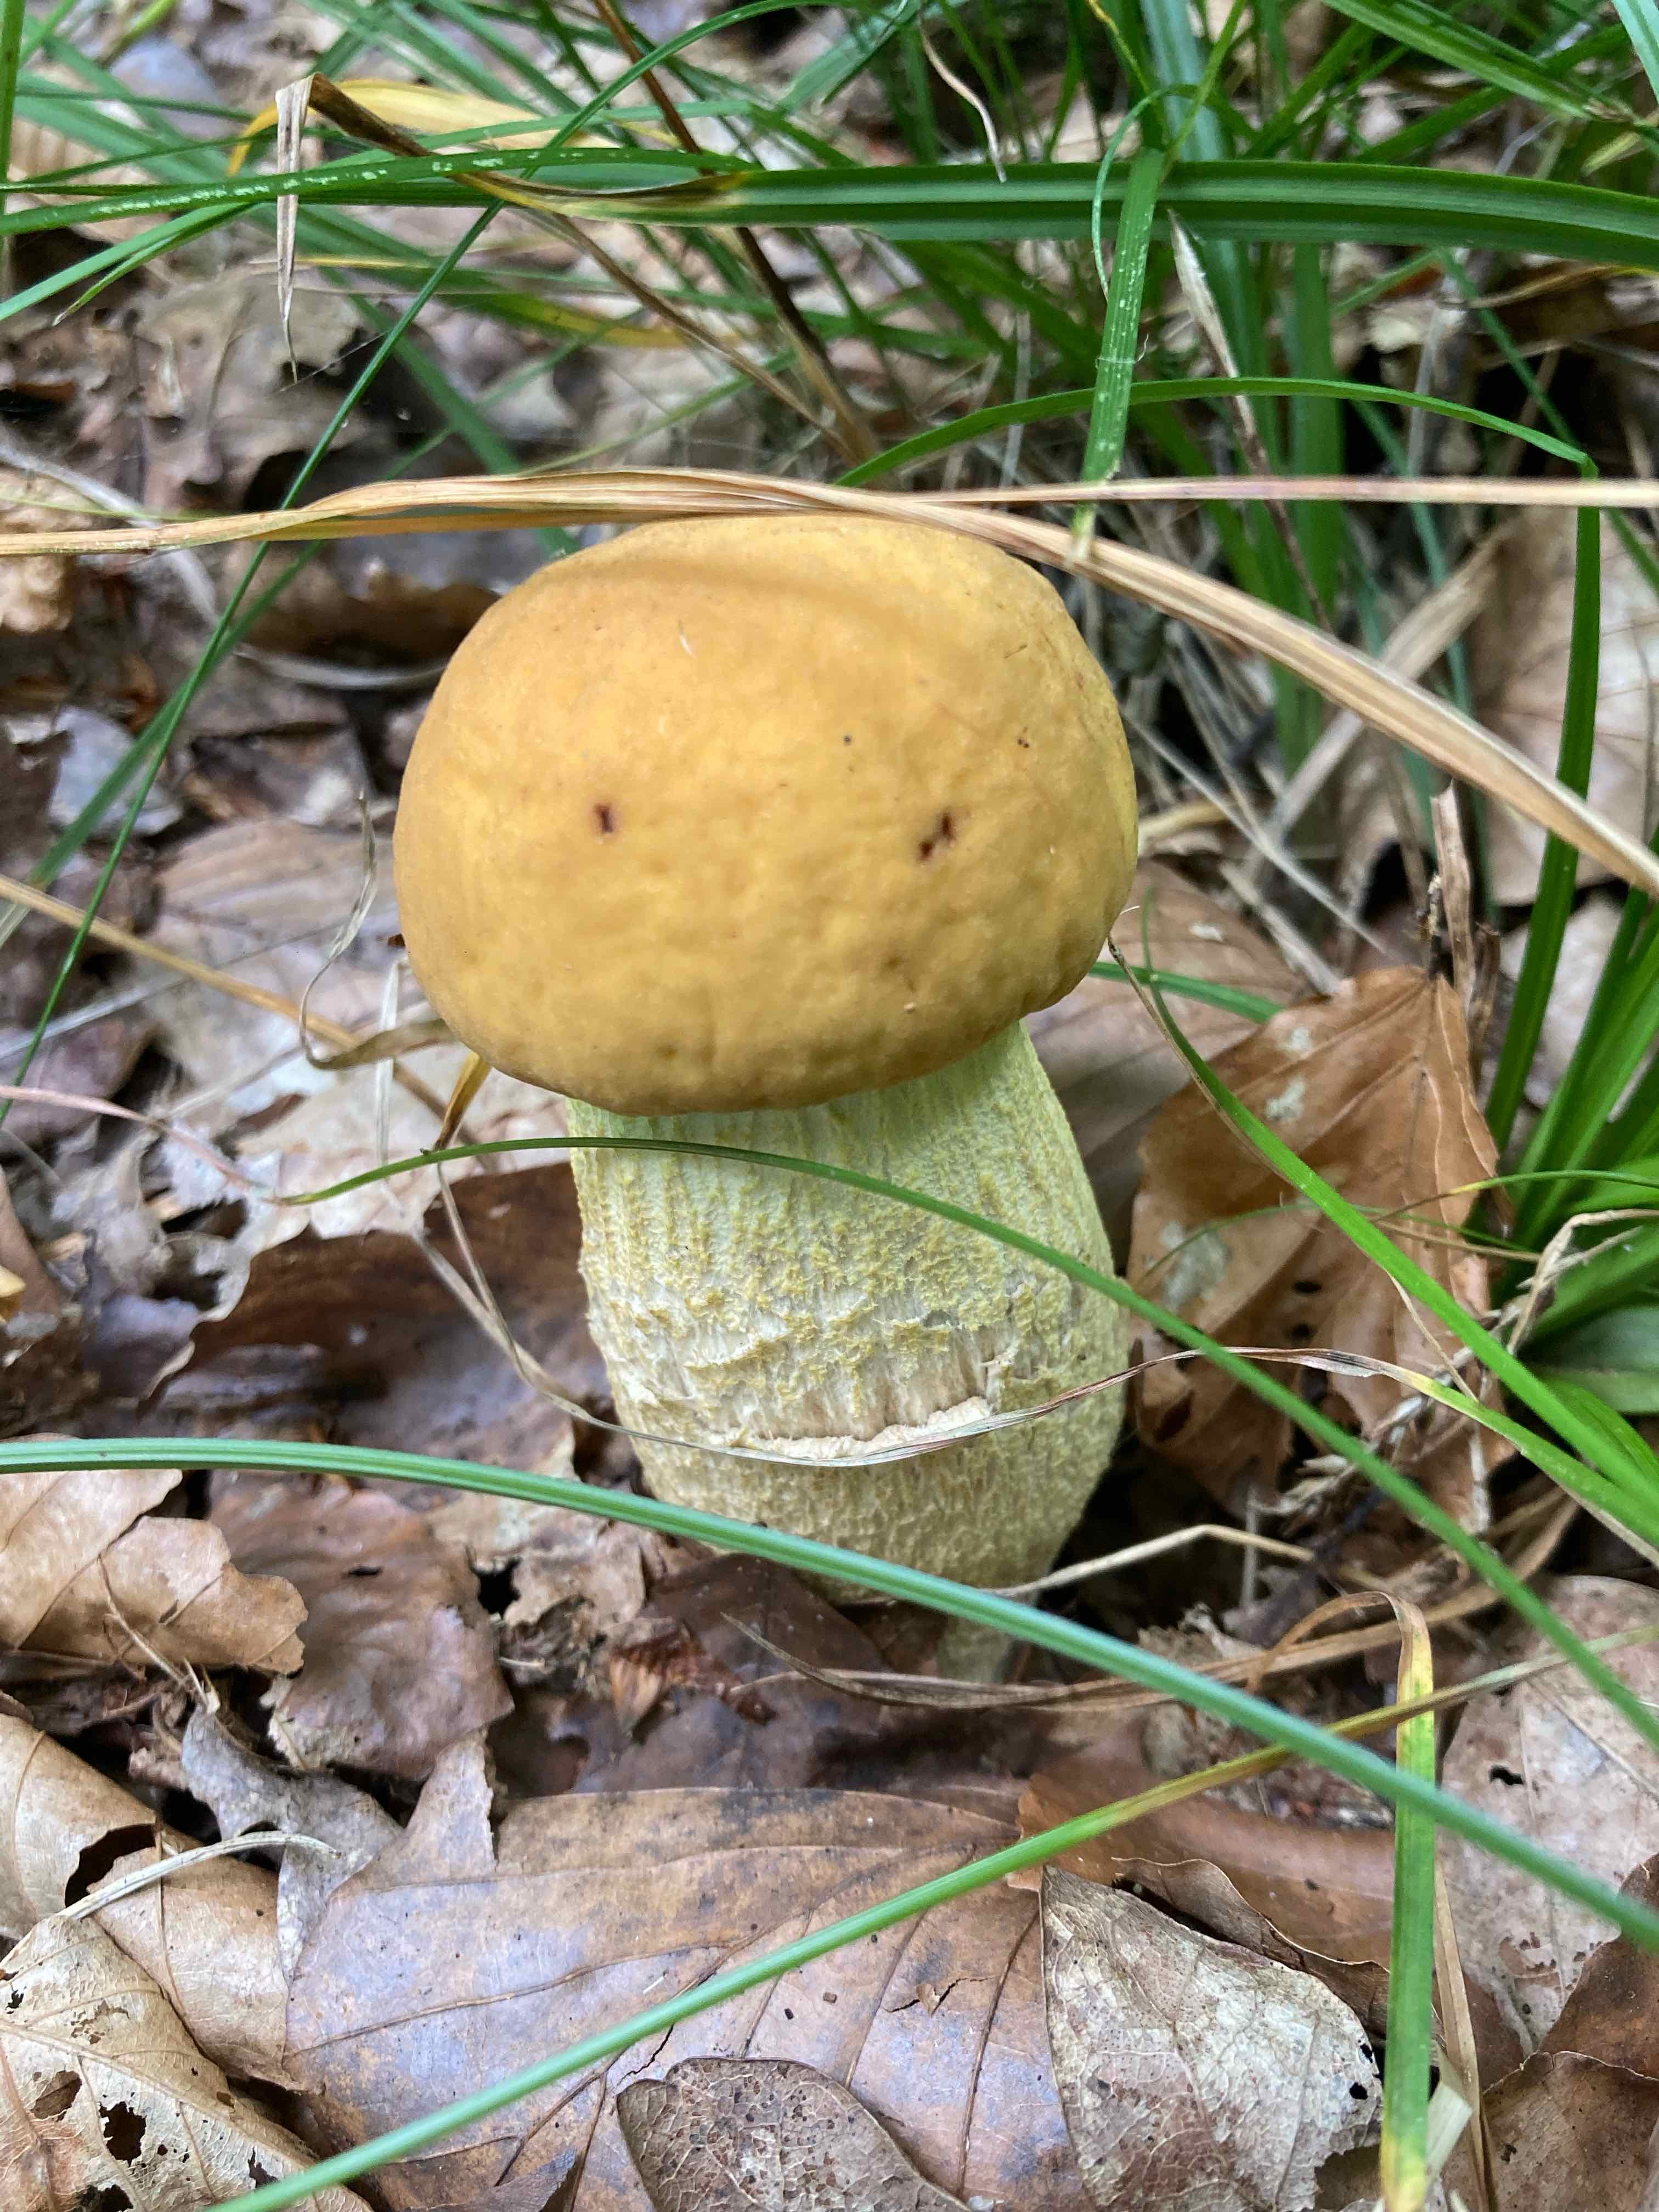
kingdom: Fungi
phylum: Basidiomycota
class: Agaricomycetes
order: Boletales
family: Boletaceae
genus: Leccinellum
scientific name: Leccinellum crocipodium
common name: gul skælrørhat
